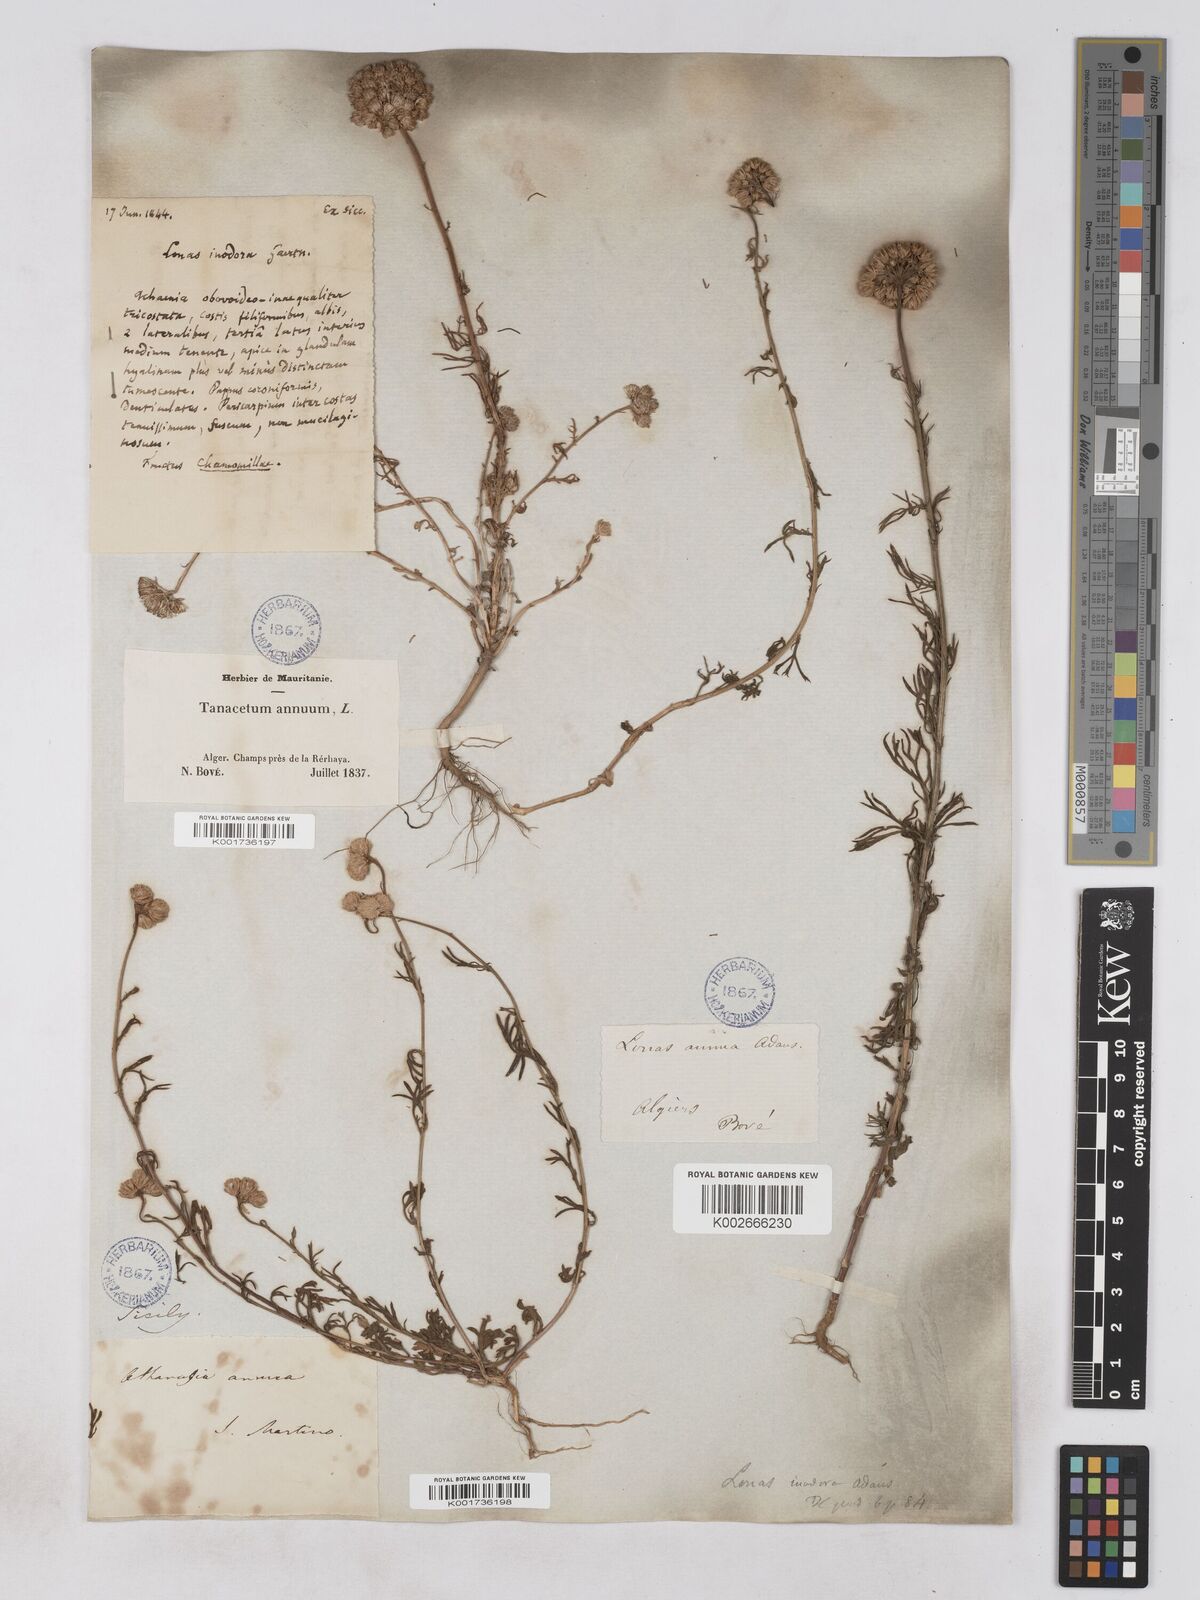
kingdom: Plantae
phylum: Tracheophyta
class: Magnoliopsida
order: Asterales
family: Asteraceae
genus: Lonas
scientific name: Lonas
